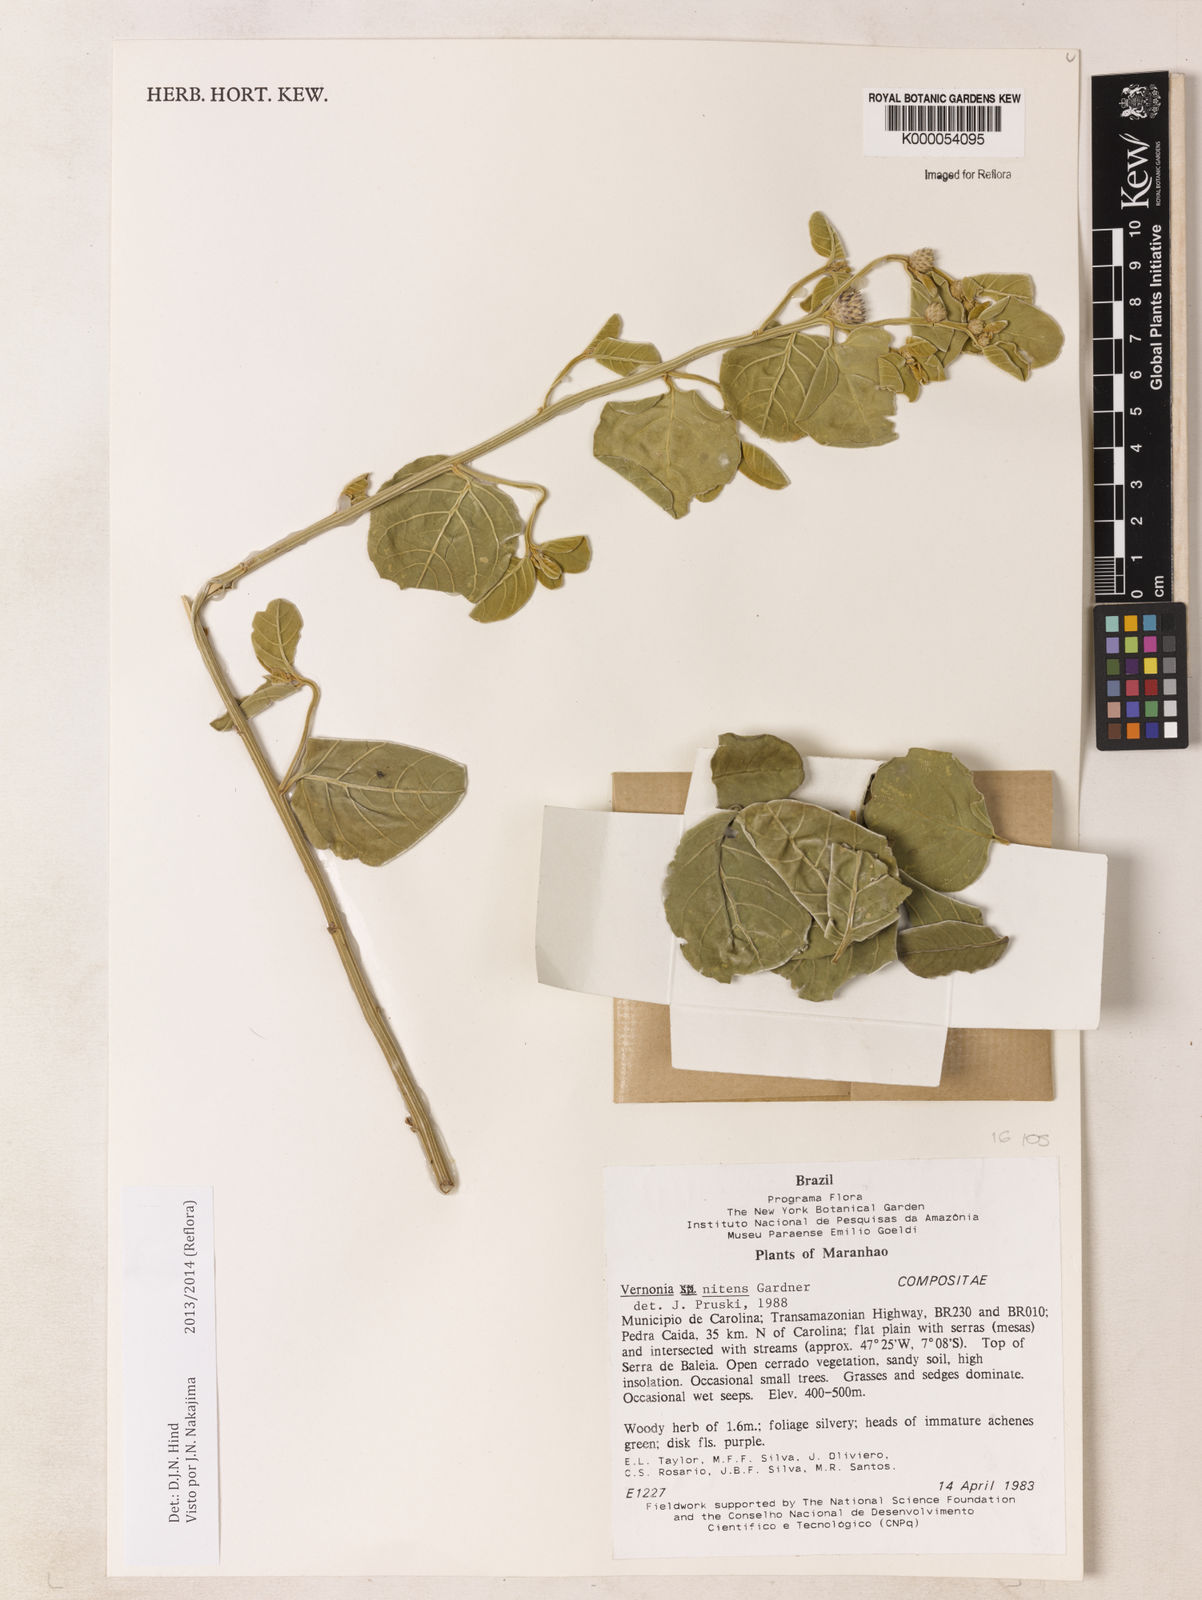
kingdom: Plantae
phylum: Tracheophyta
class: Magnoliopsida
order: Asterales
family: Asteraceae
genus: Lepidaploa
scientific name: Lepidaploa nitens
